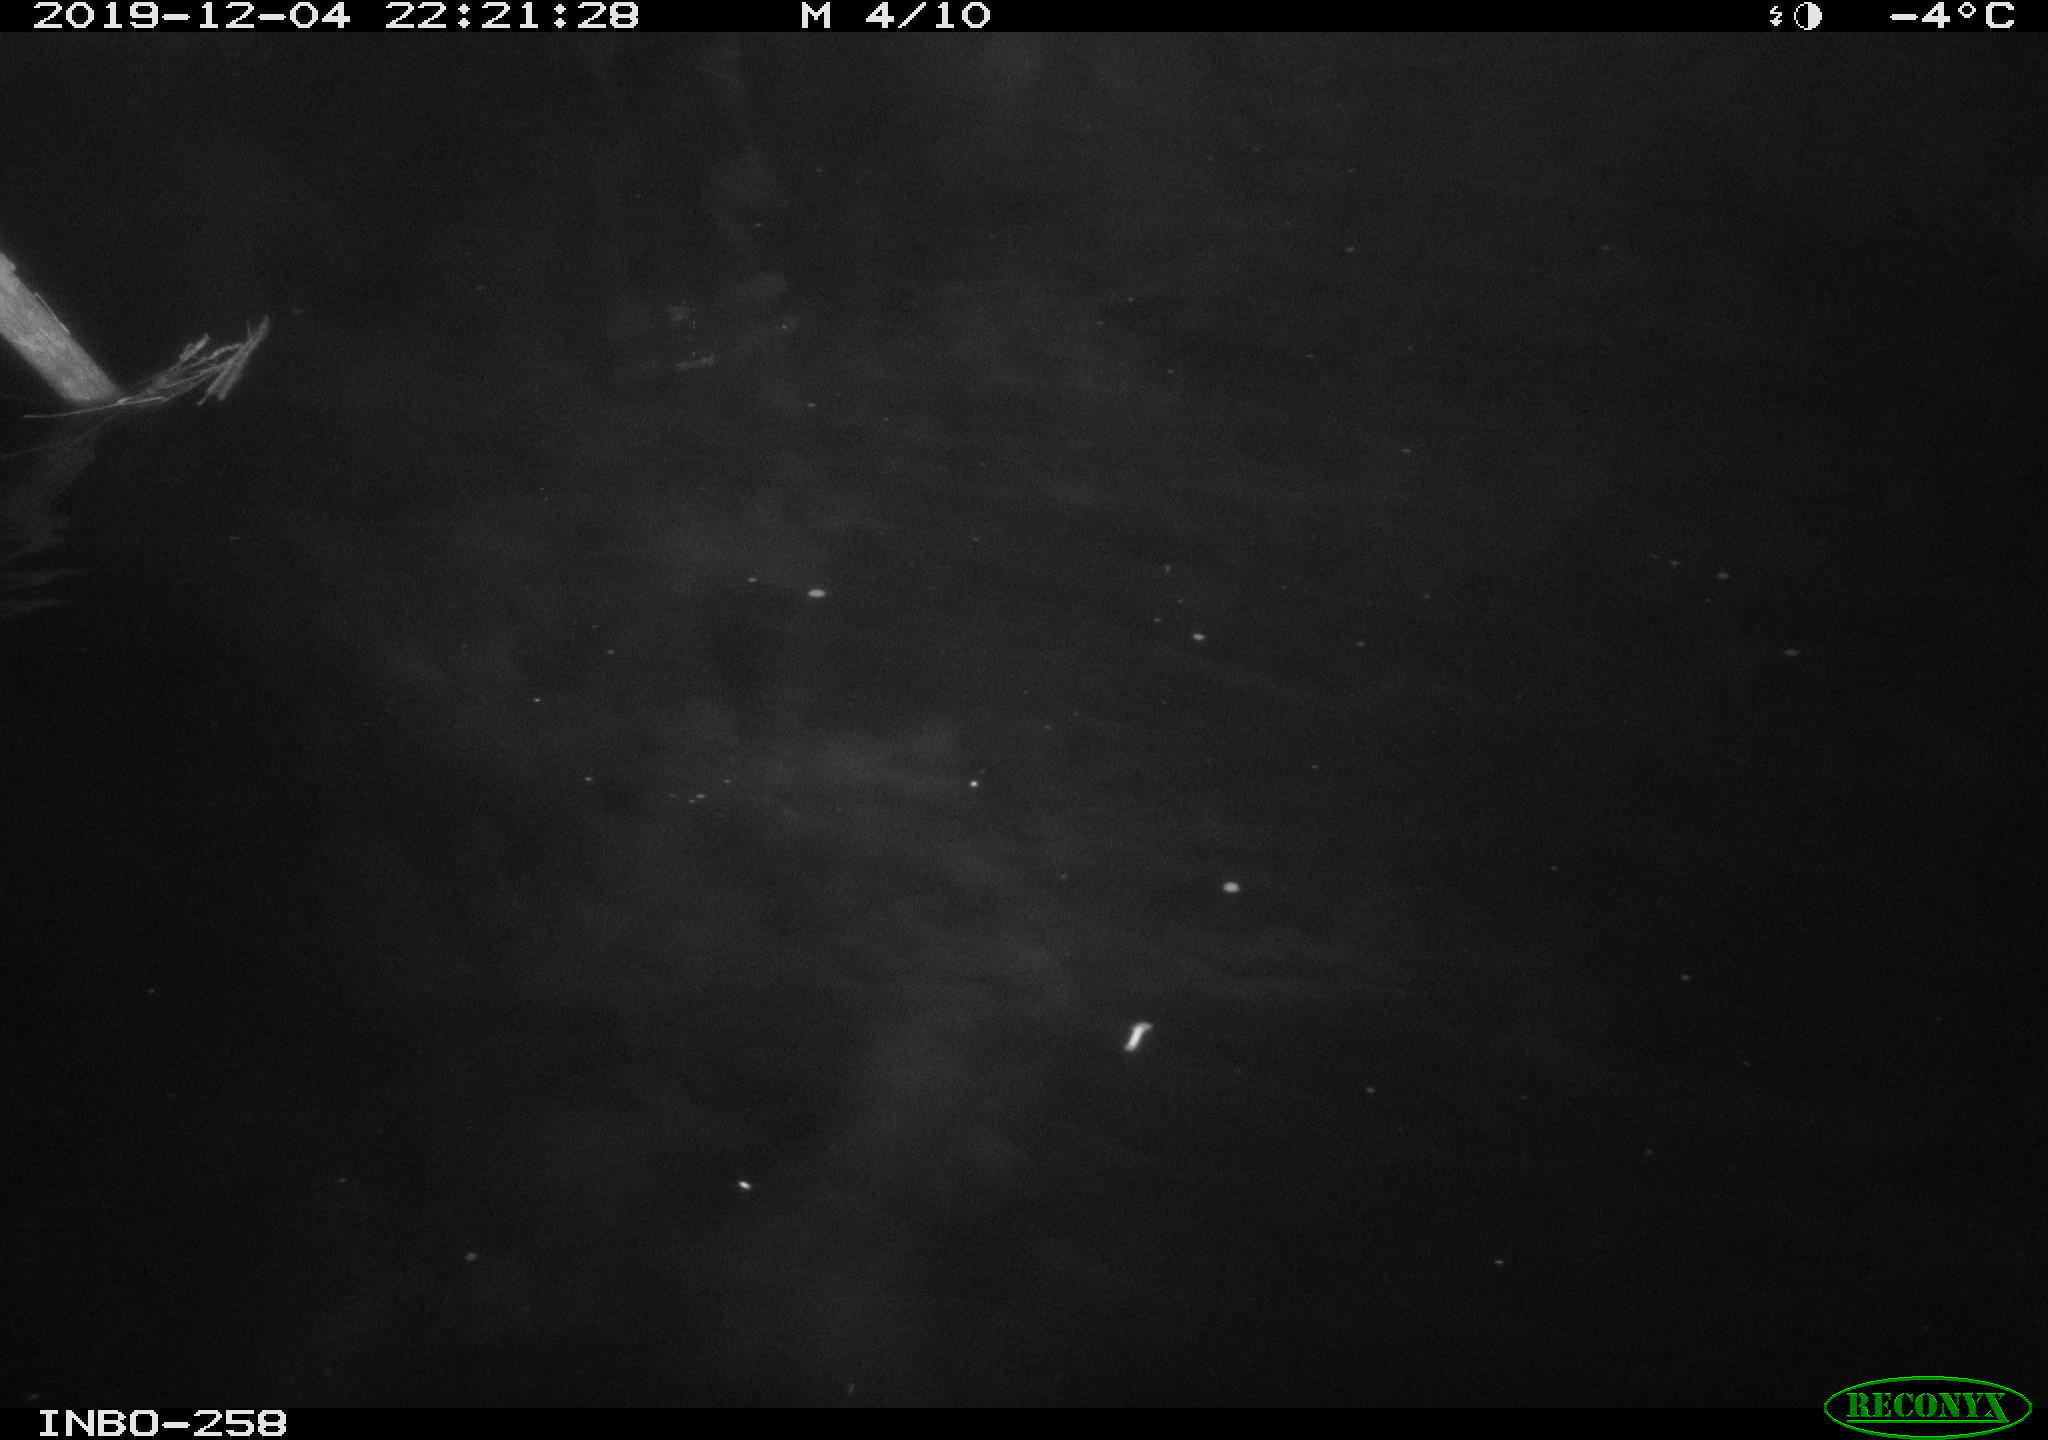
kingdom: Animalia
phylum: Chordata
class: Aves
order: Anseriformes
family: Anatidae
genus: Anas
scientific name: Anas platyrhynchos
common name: Mallard
